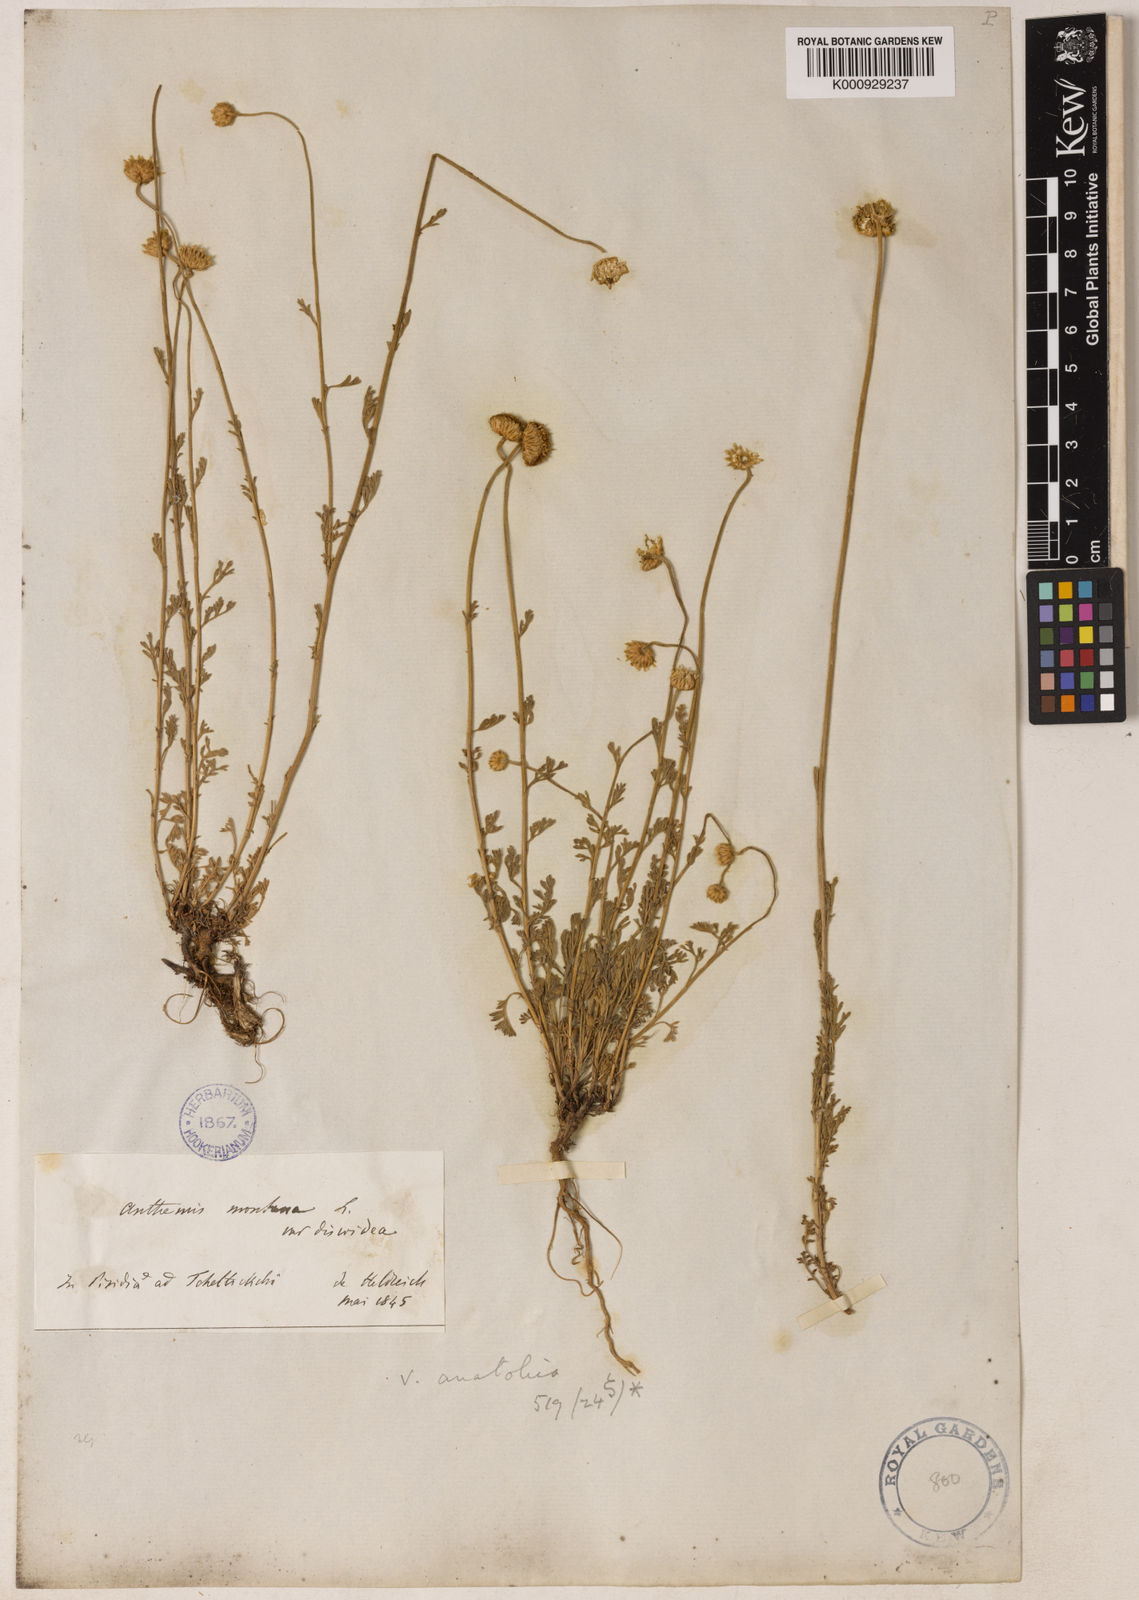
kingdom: Plantae
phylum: Tracheophyta
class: Magnoliopsida
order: Asterales
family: Asteraceae
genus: Anthemis
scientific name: Anthemis cretica
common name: Mountain dog-daisy
